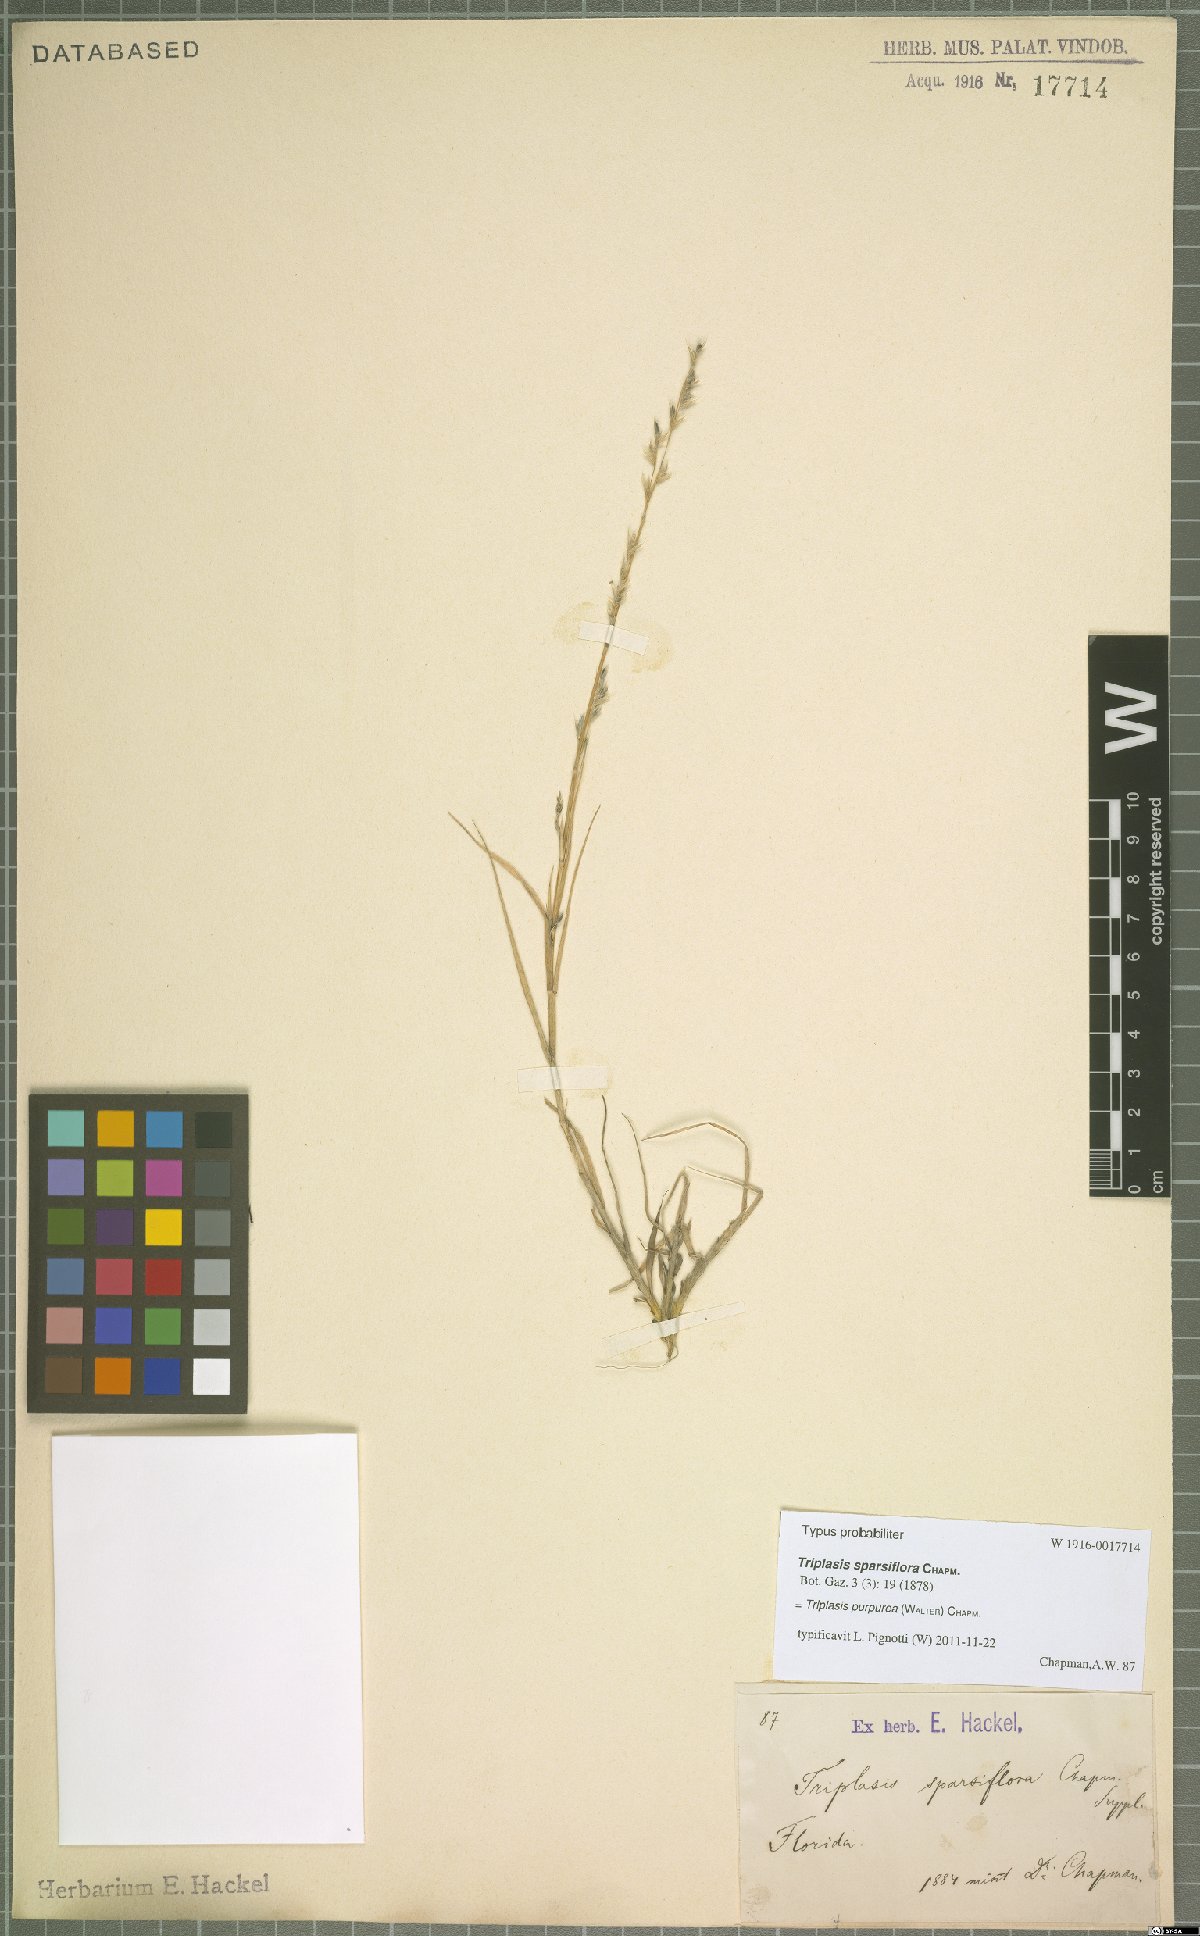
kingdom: Plantae
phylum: Tracheophyta
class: Liliopsida
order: Poales
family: Poaceae
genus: Triplasis
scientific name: Triplasis purpurea
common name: Purple sand grass
